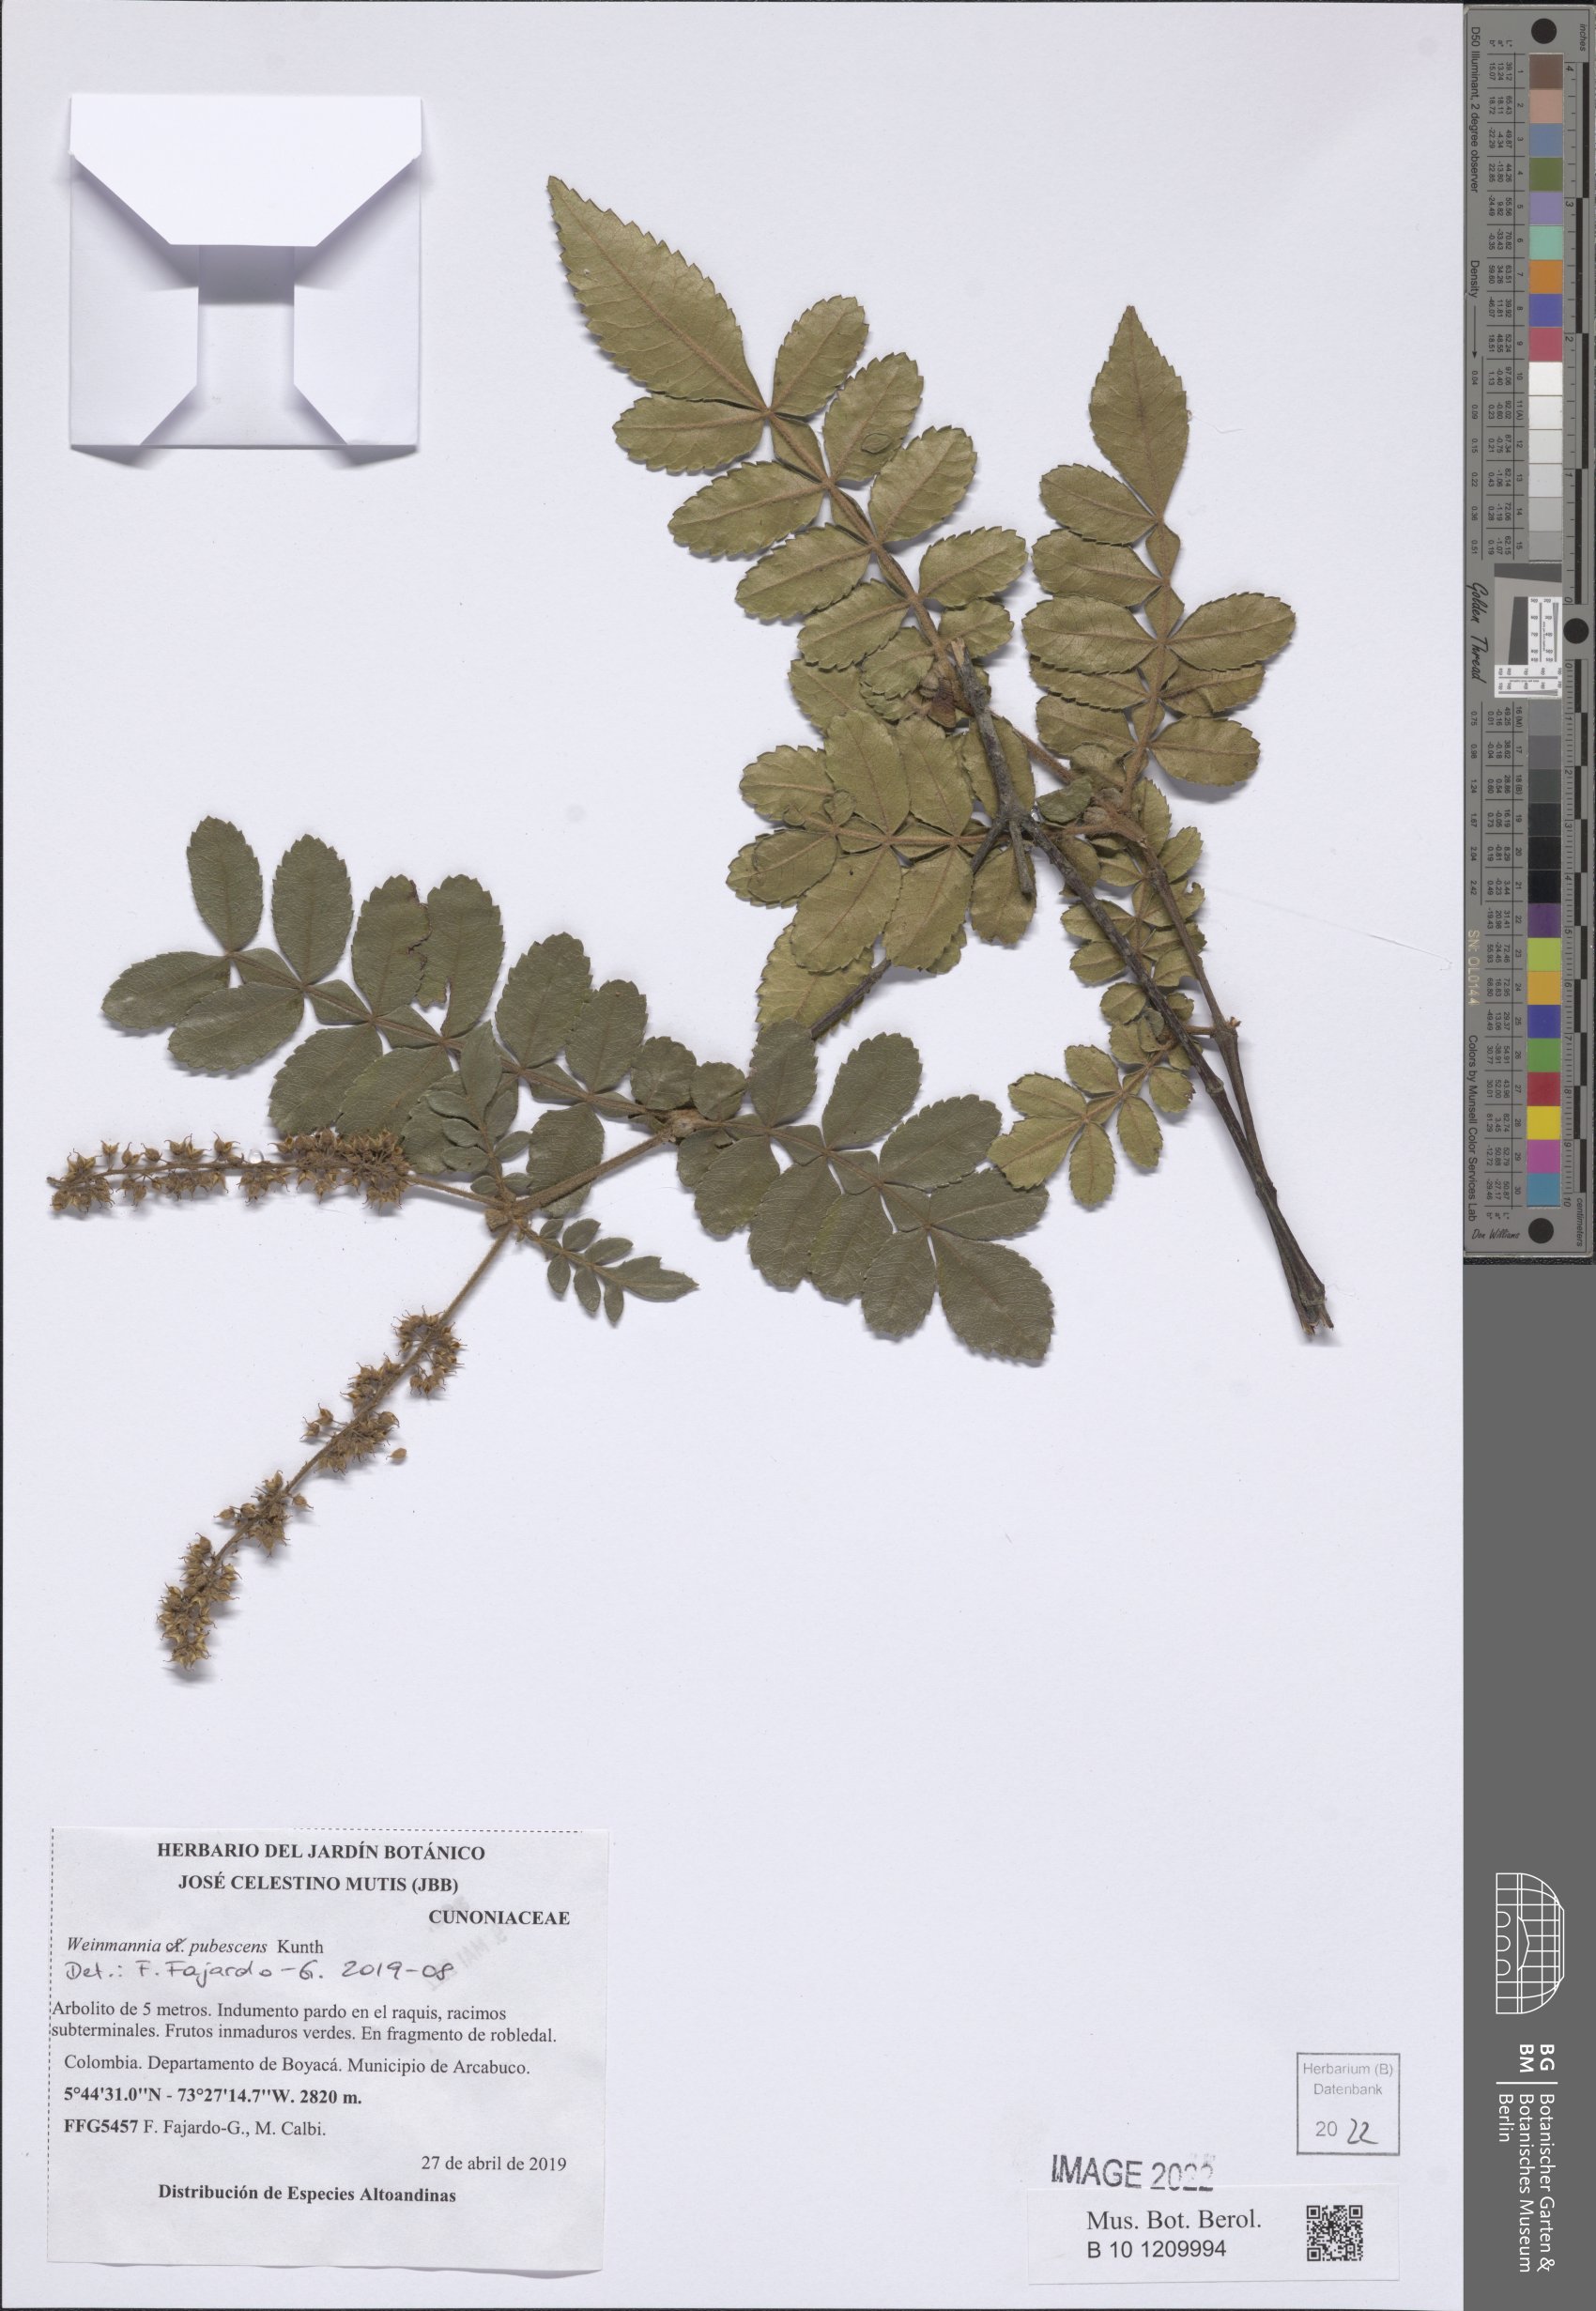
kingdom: Plantae
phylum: Tracheophyta
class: Magnoliopsida
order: Oxalidales
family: Cunoniaceae
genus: Weinmannia
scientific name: Weinmannia pubescens
